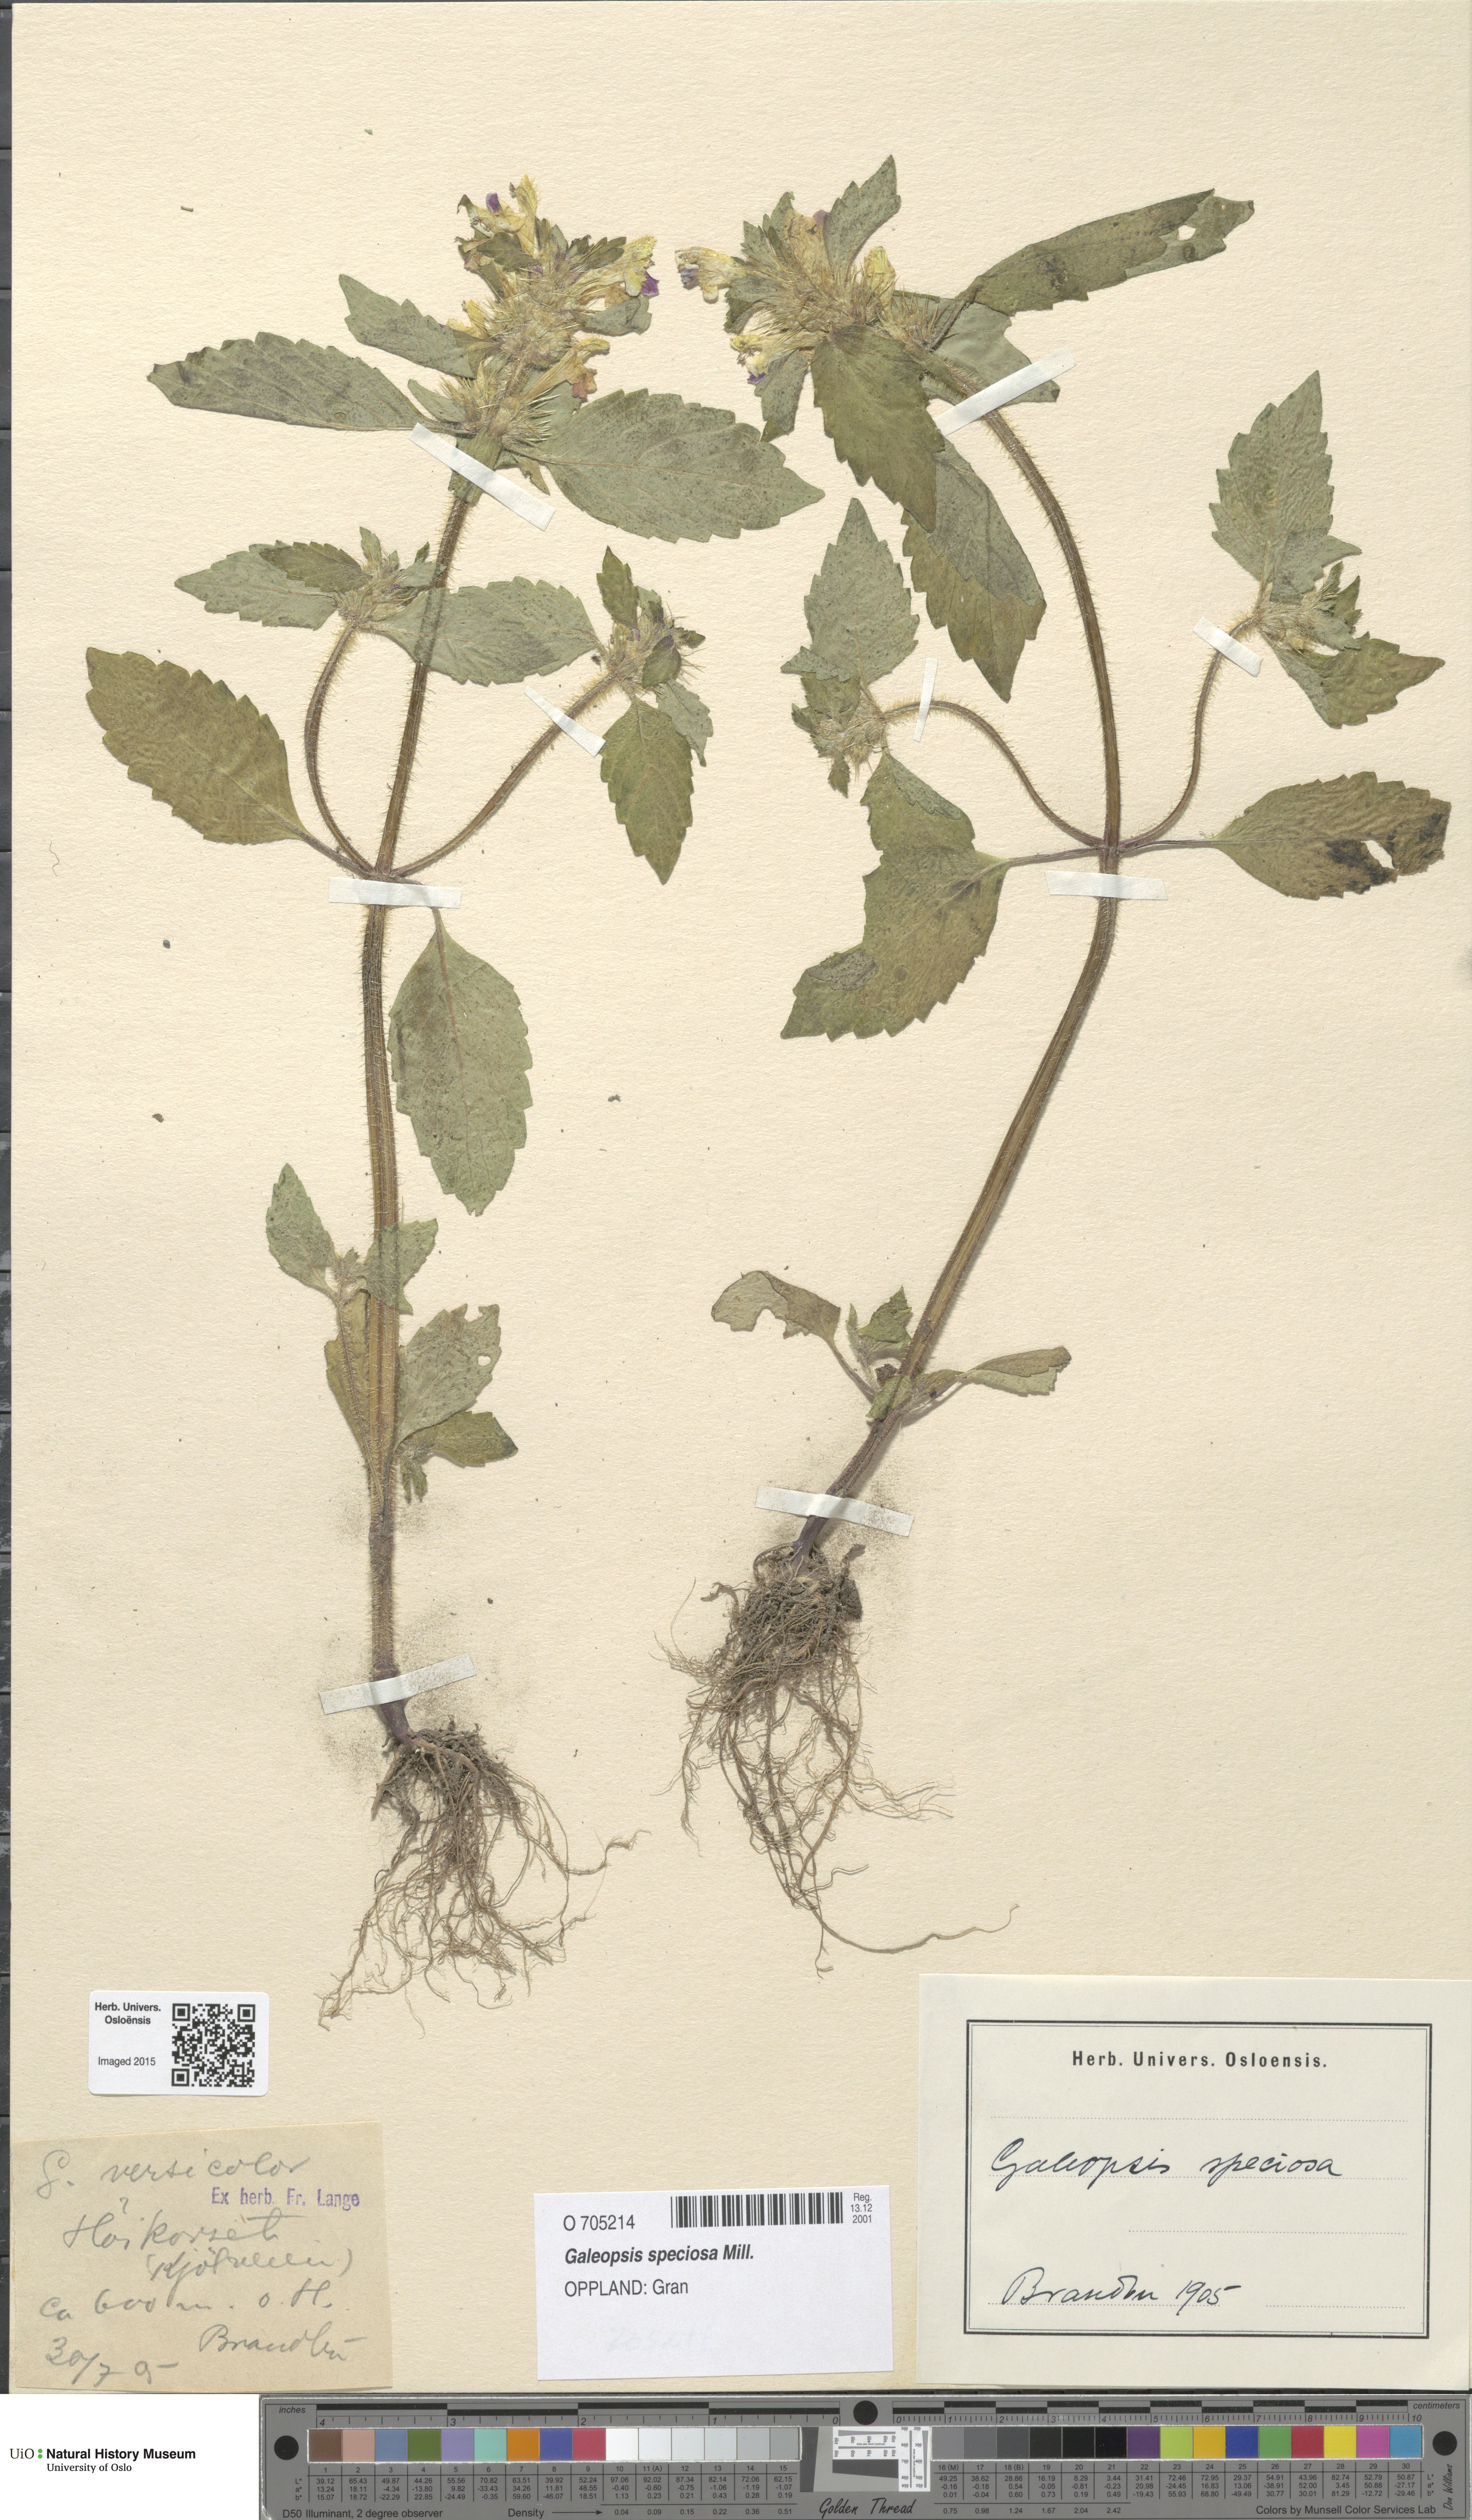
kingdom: Plantae
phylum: Tracheophyta
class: Magnoliopsida
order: Lamiales
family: Lamiaceae
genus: Galeopsis
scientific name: Galeopsis speciosa
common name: Large-flowered hemp-nettle
